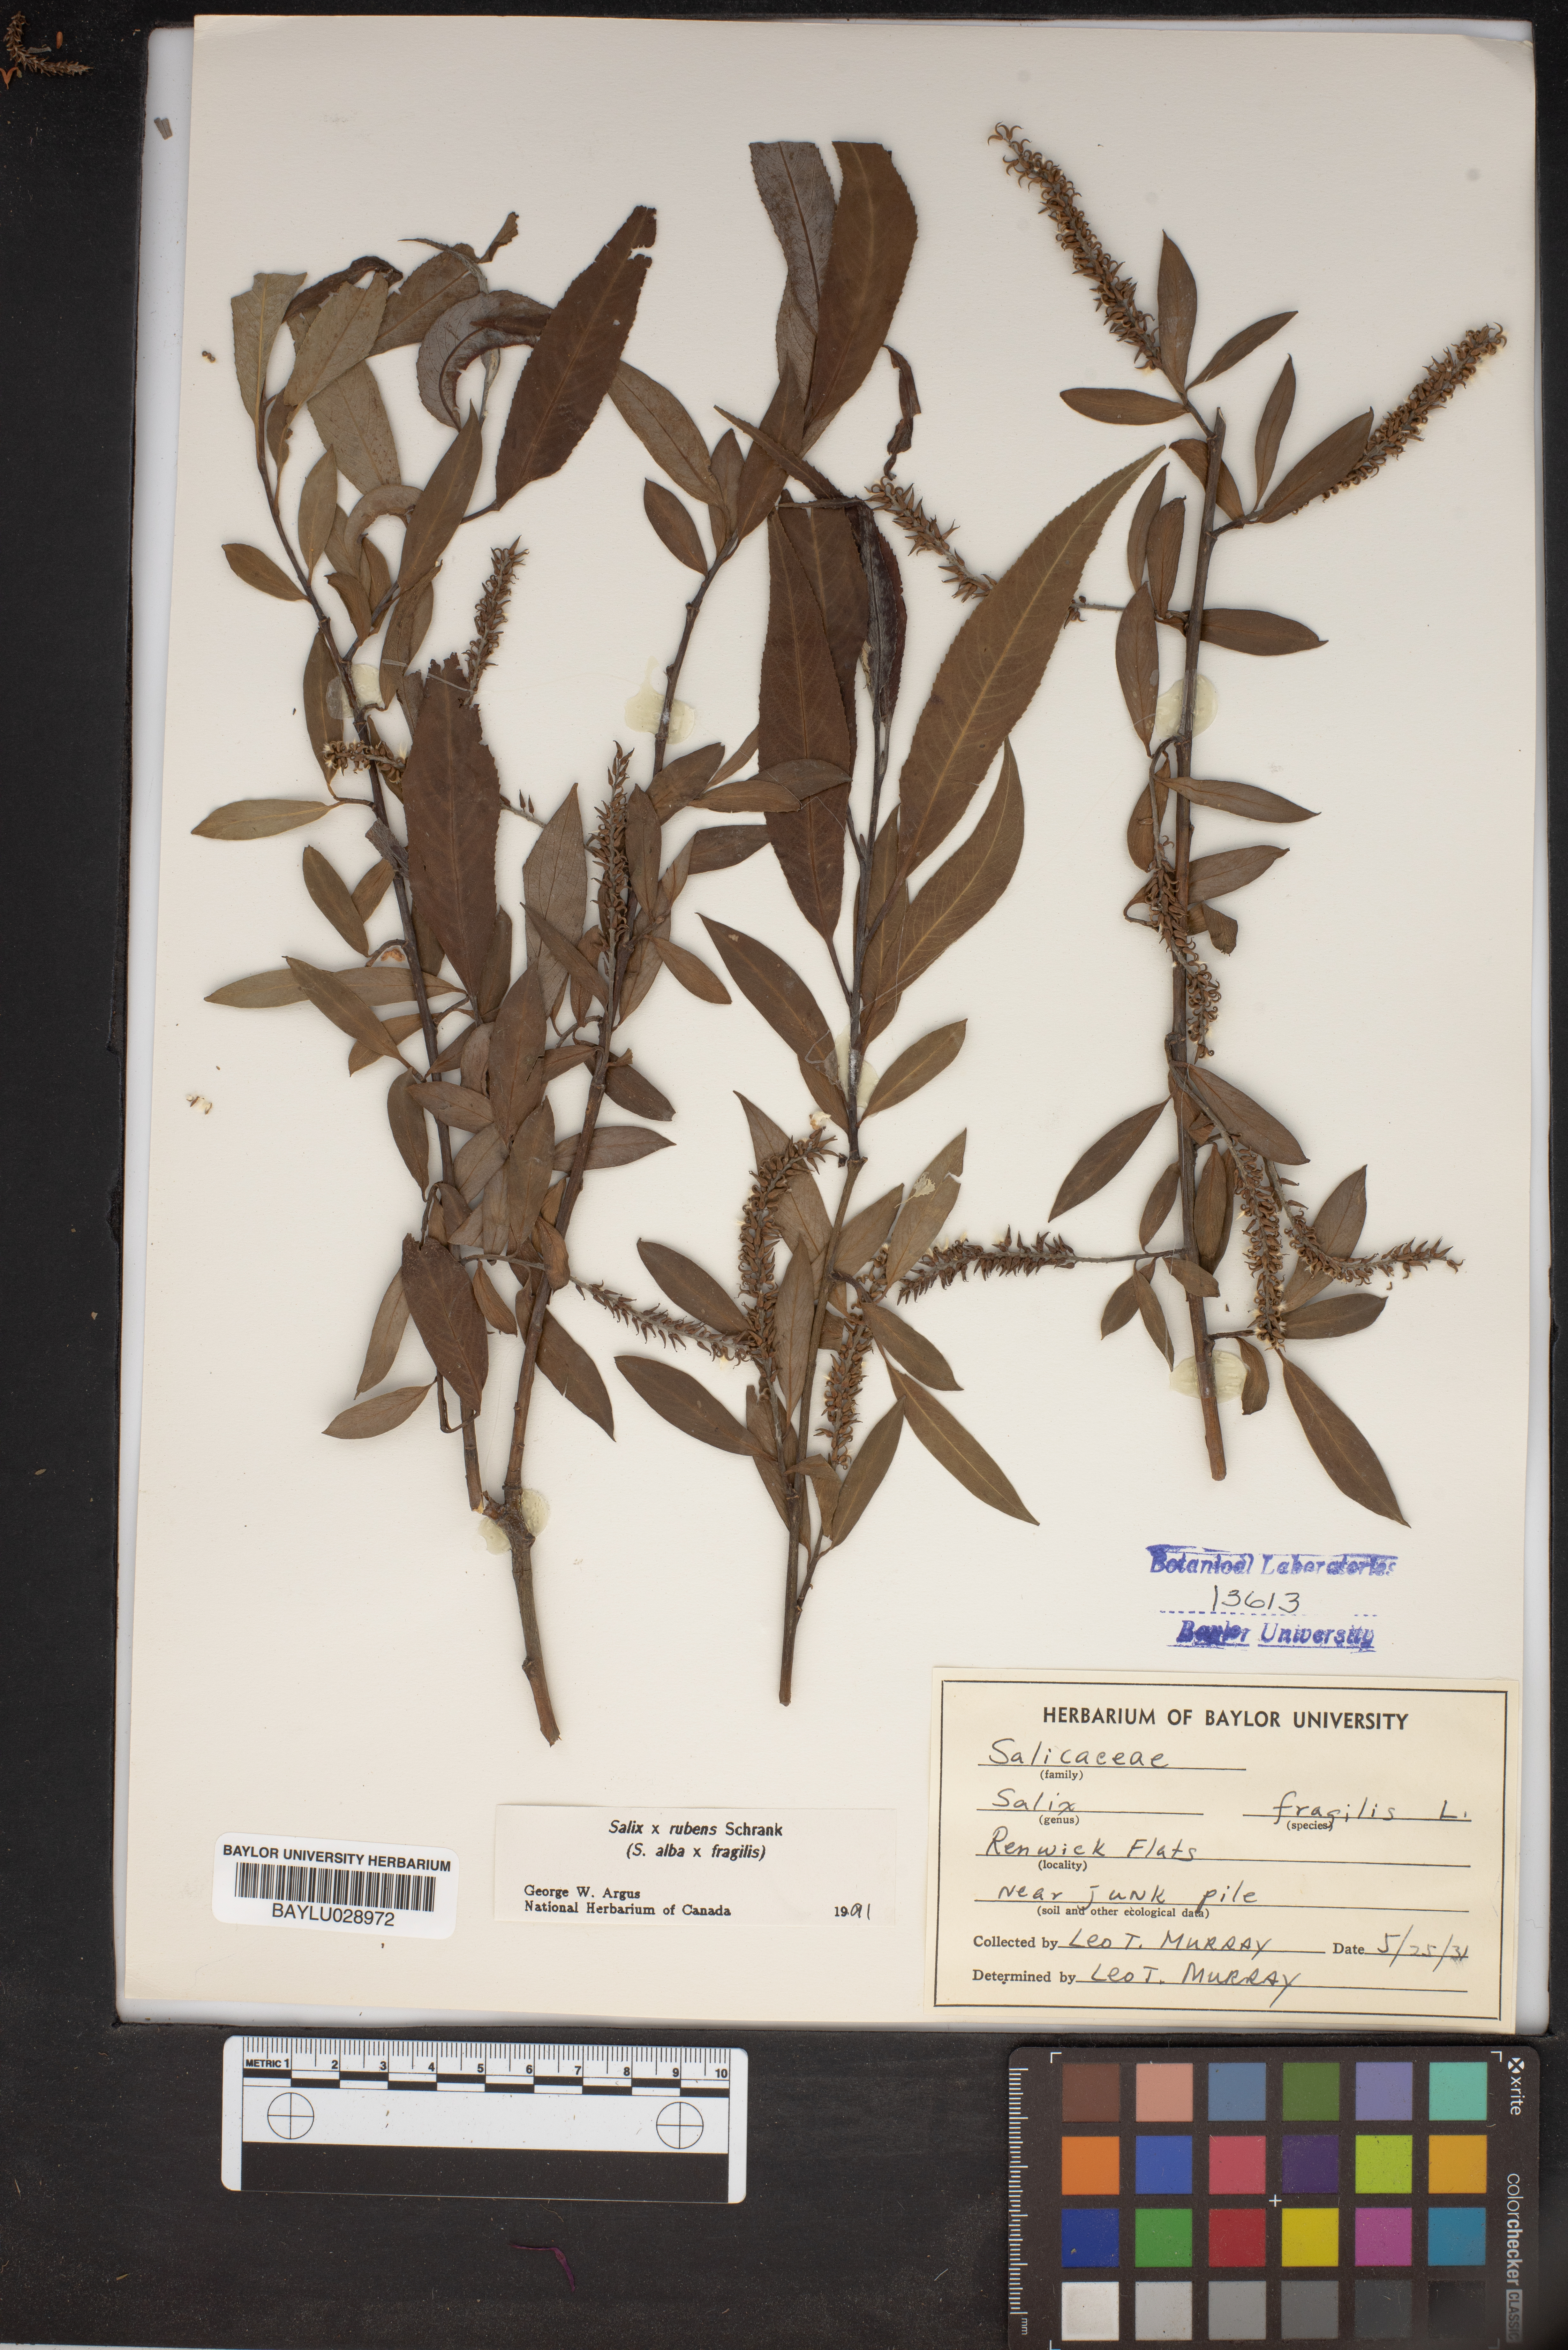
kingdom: Plantae
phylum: Tracheophyta
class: Magnoliopsida
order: Malpighiales
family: Salicaceae
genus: Salix
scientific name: Salix silesiaca
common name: Silesian willow
